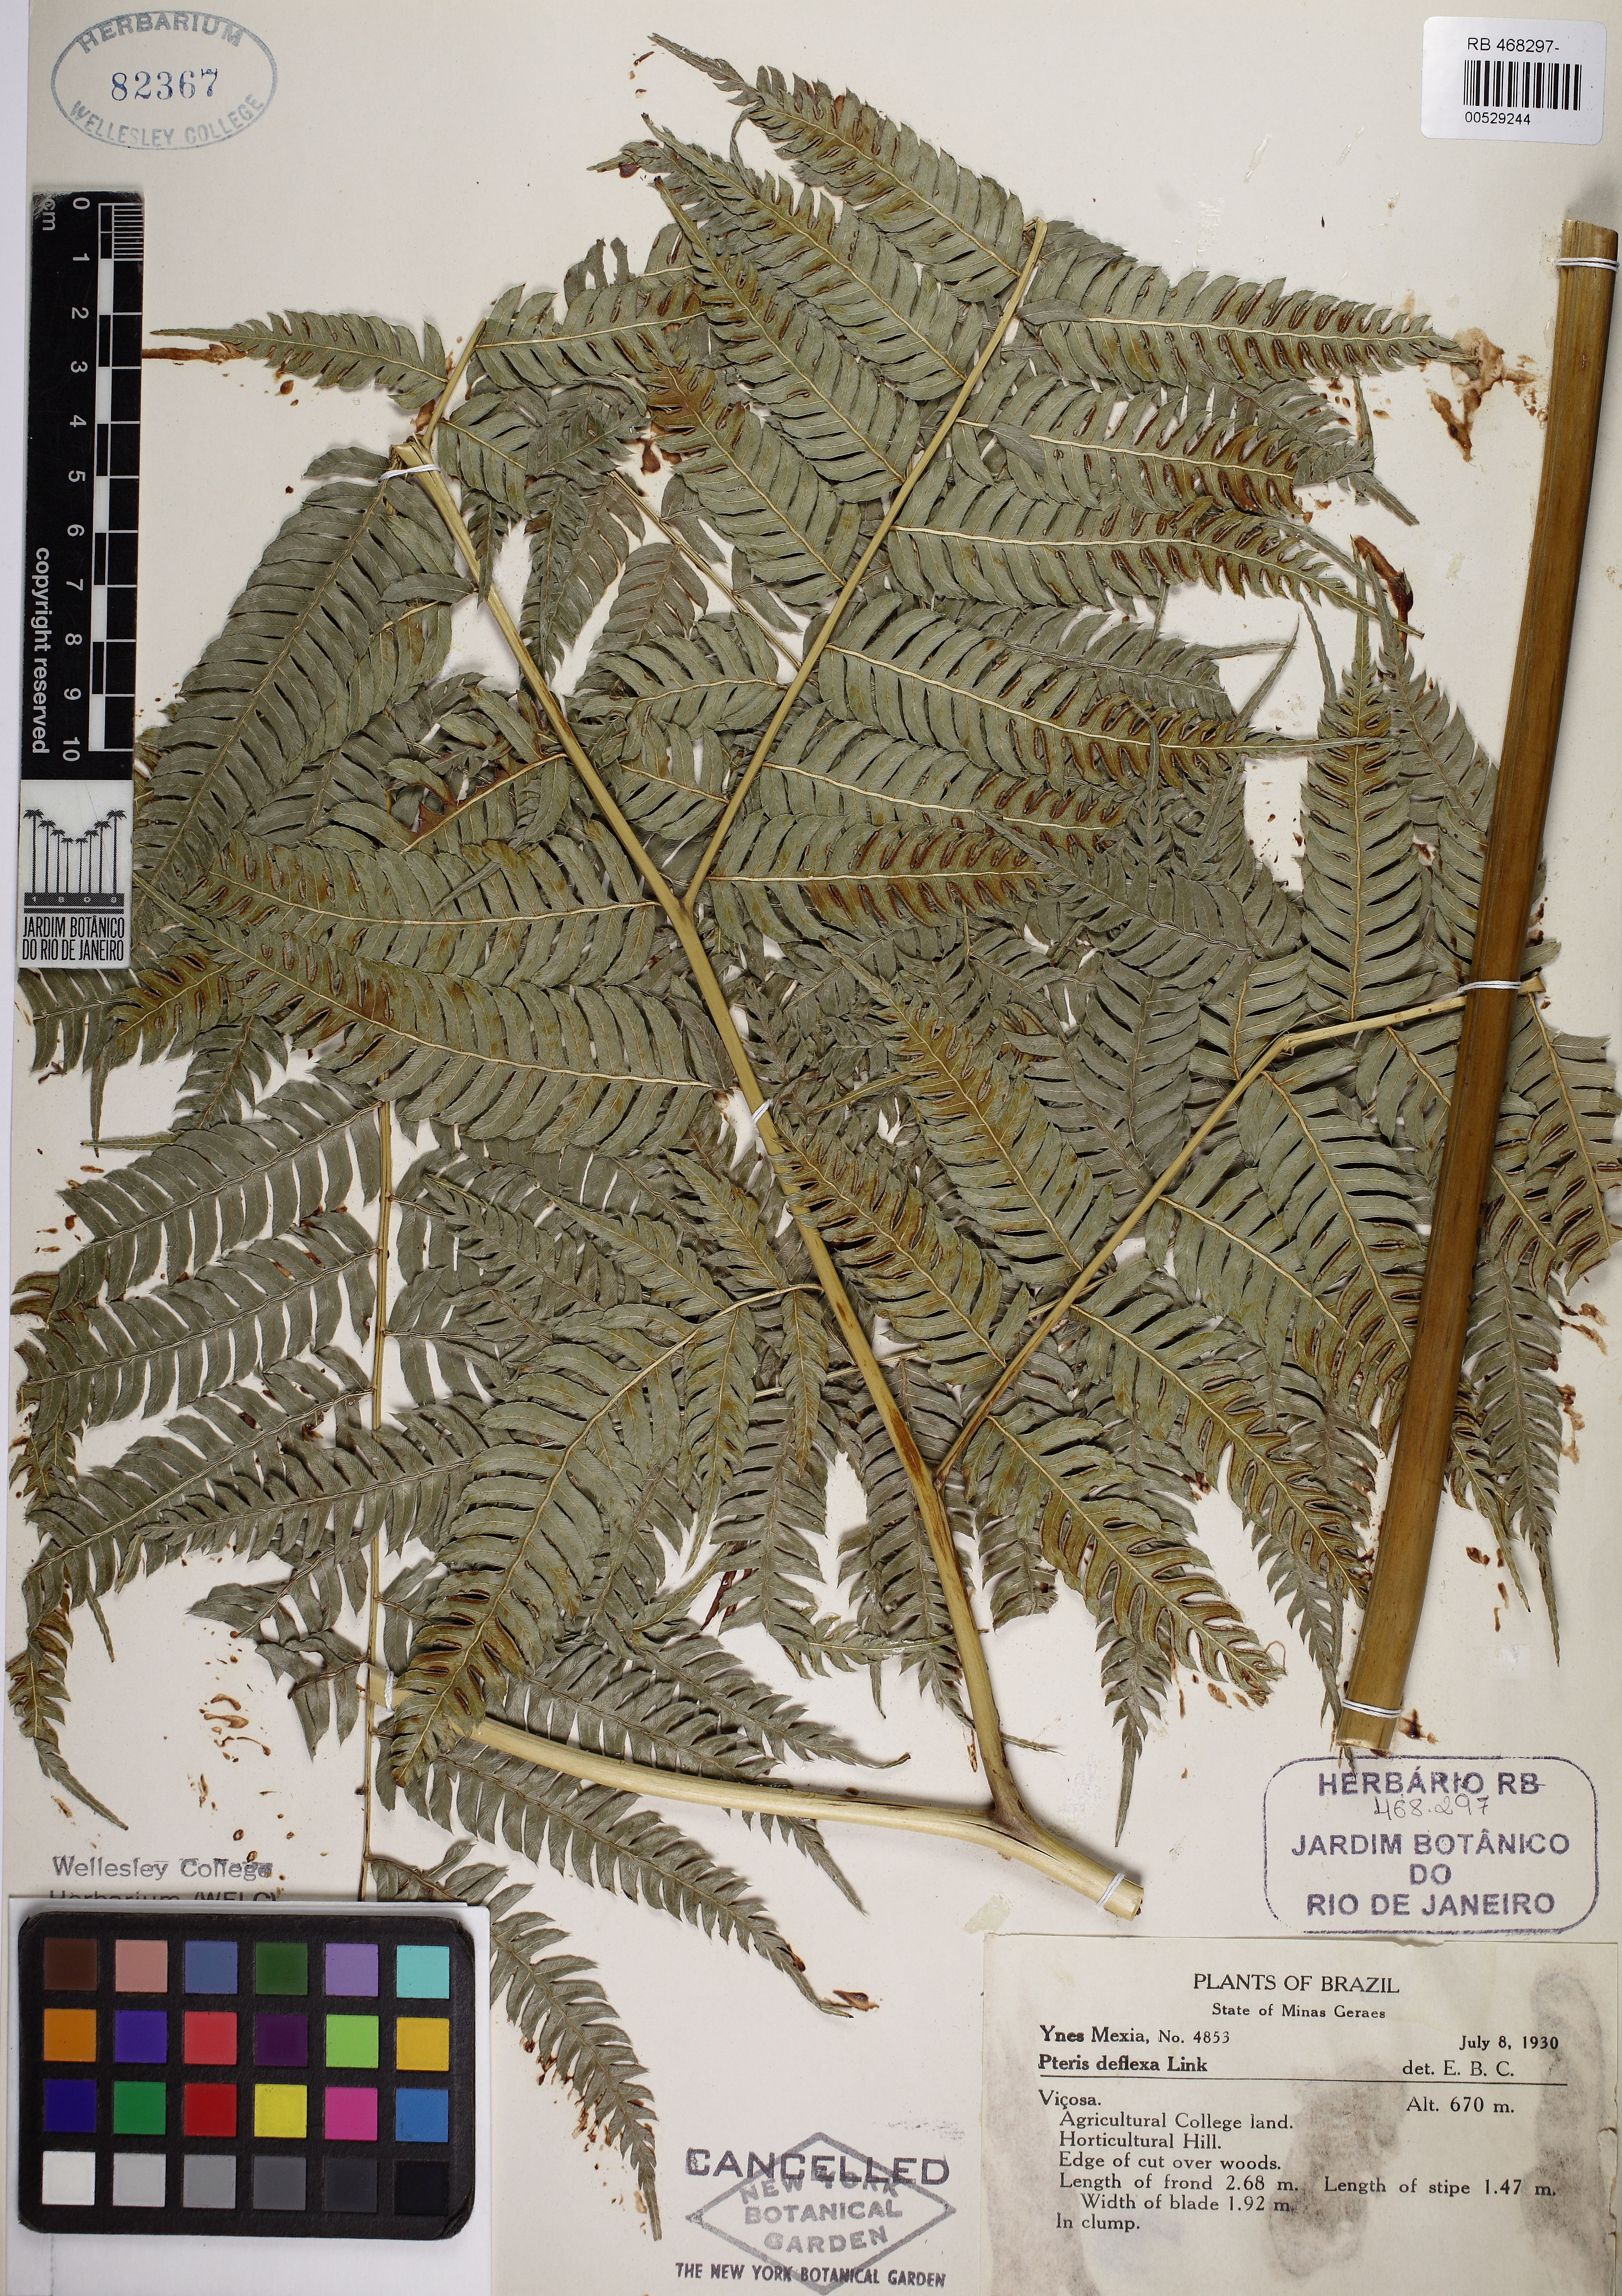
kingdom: Plantae
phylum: Tracheophyta
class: Polypodiopsida
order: Polypodiales
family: Pteridaceae
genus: Pteris
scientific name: Pteris deflexa
